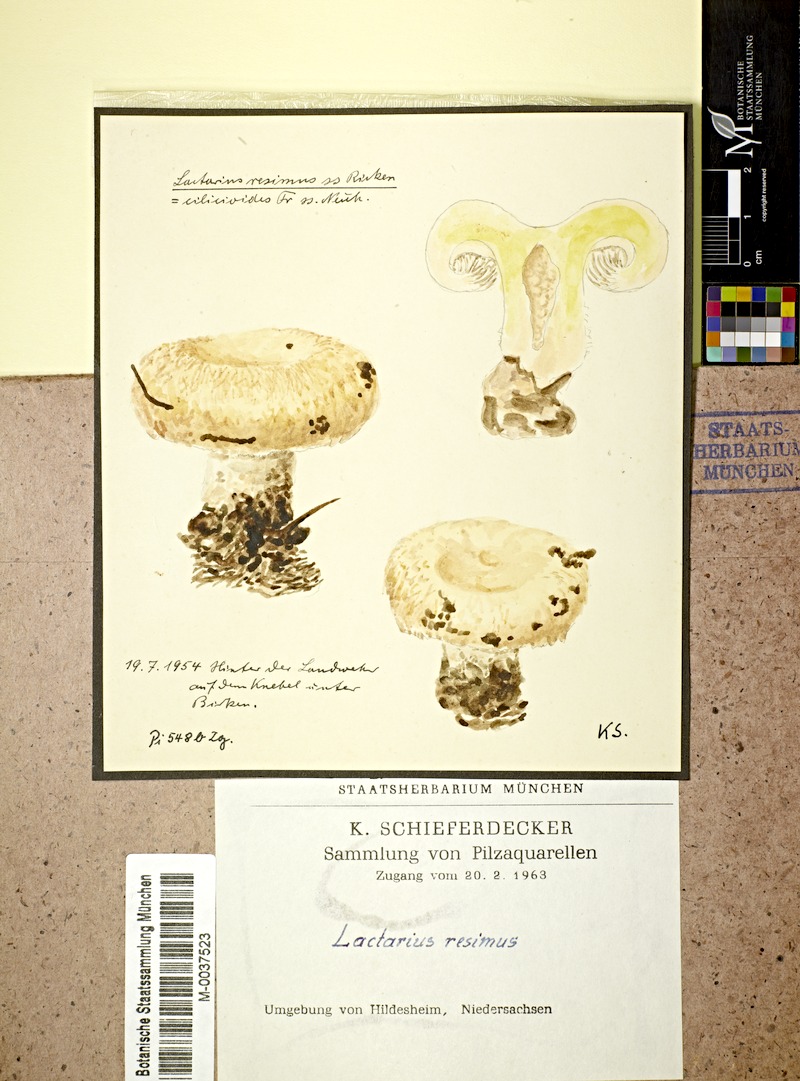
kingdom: Fungi
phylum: Basidiomycota
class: Agaricomycetes
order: Russulales
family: Russulaceae
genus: Lactarius
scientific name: Lactarius citriolens
